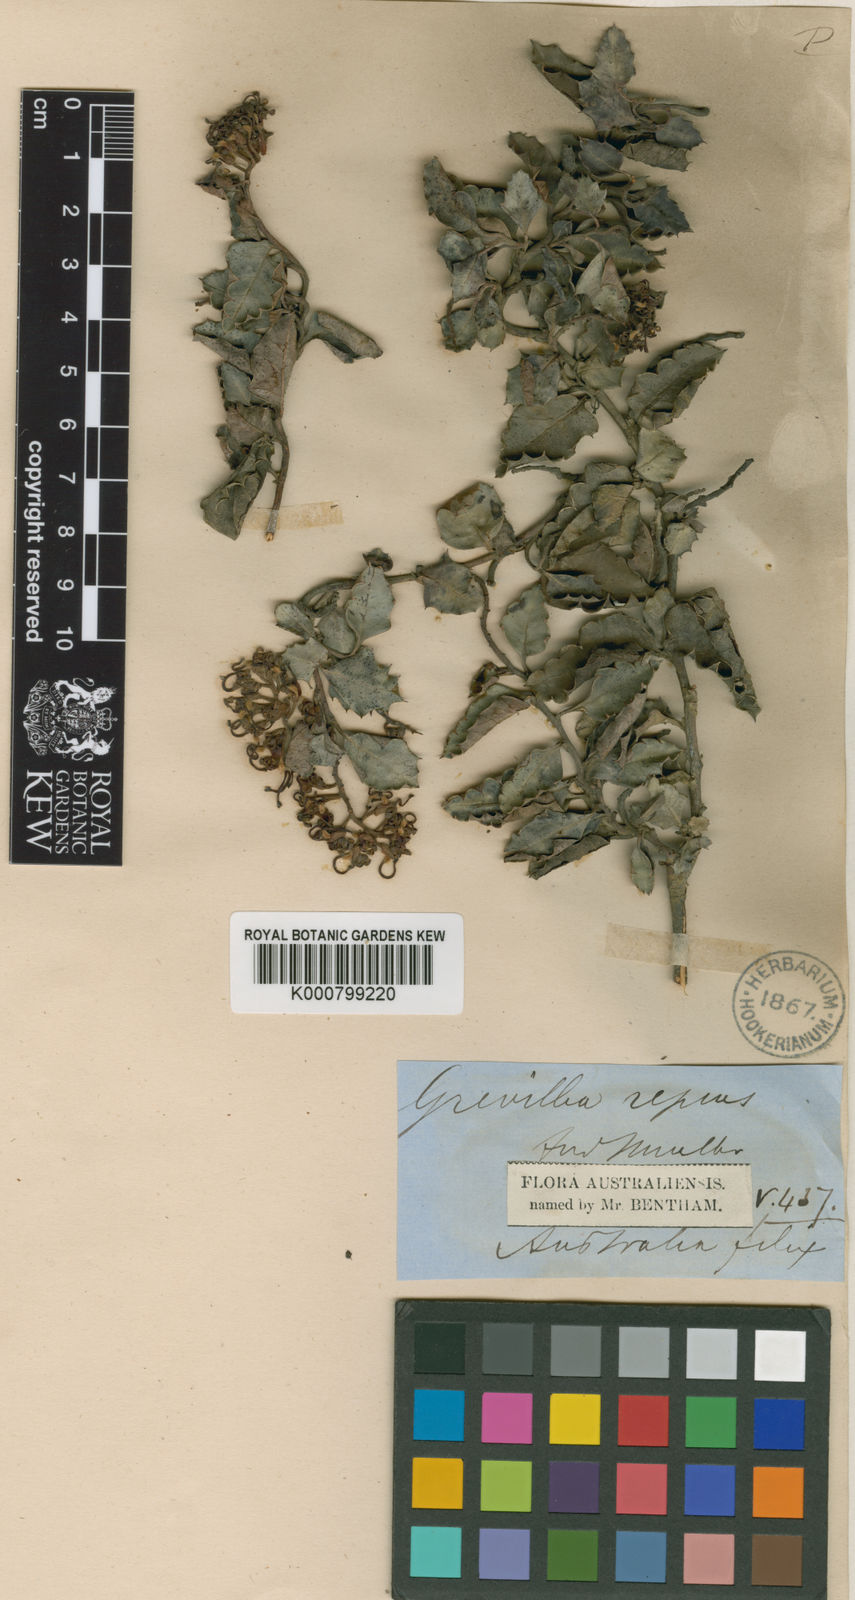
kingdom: Plantae
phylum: Tracheophyta
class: Magnoliopsida
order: Proteales
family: Proteaceae
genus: Grevillea
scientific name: Grevillea
